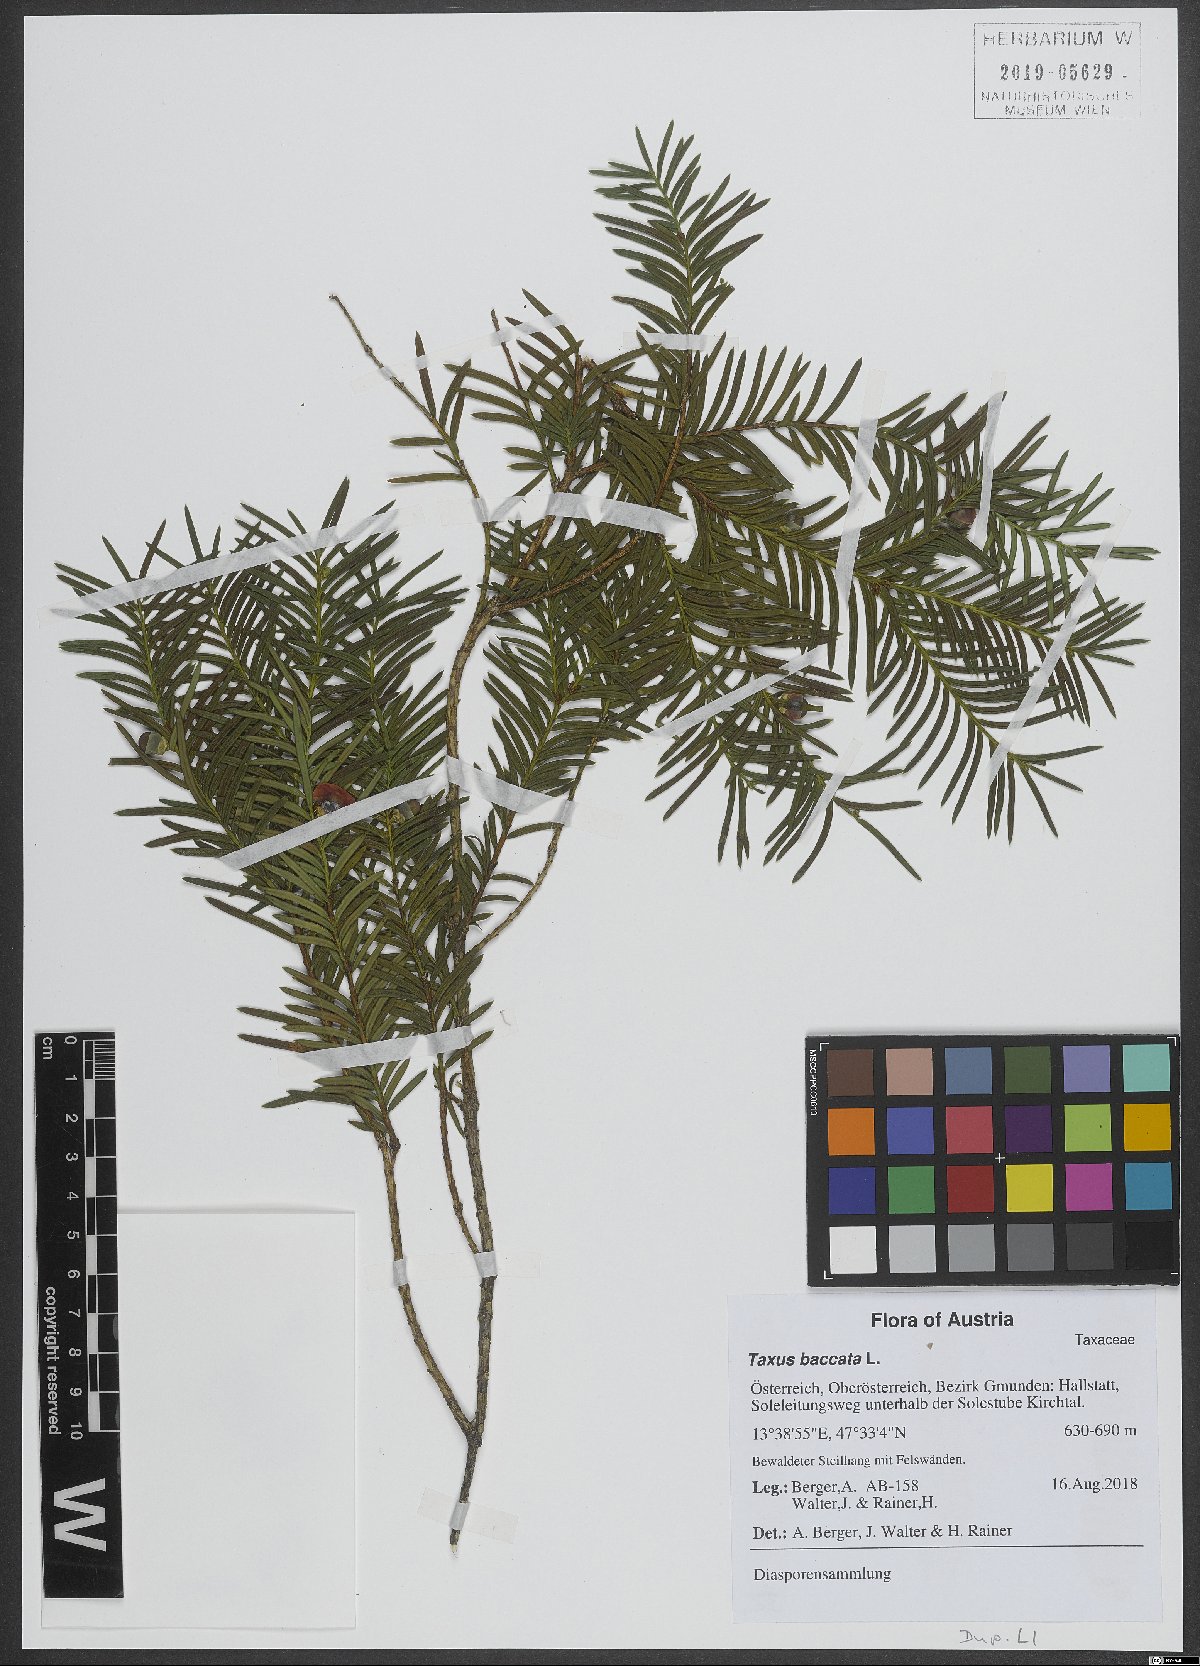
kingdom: Plantae
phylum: Tracheophyta
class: Pinopsida
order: Pinales
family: Taxaceae
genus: Taxus
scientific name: Taxus baccata
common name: Yew
